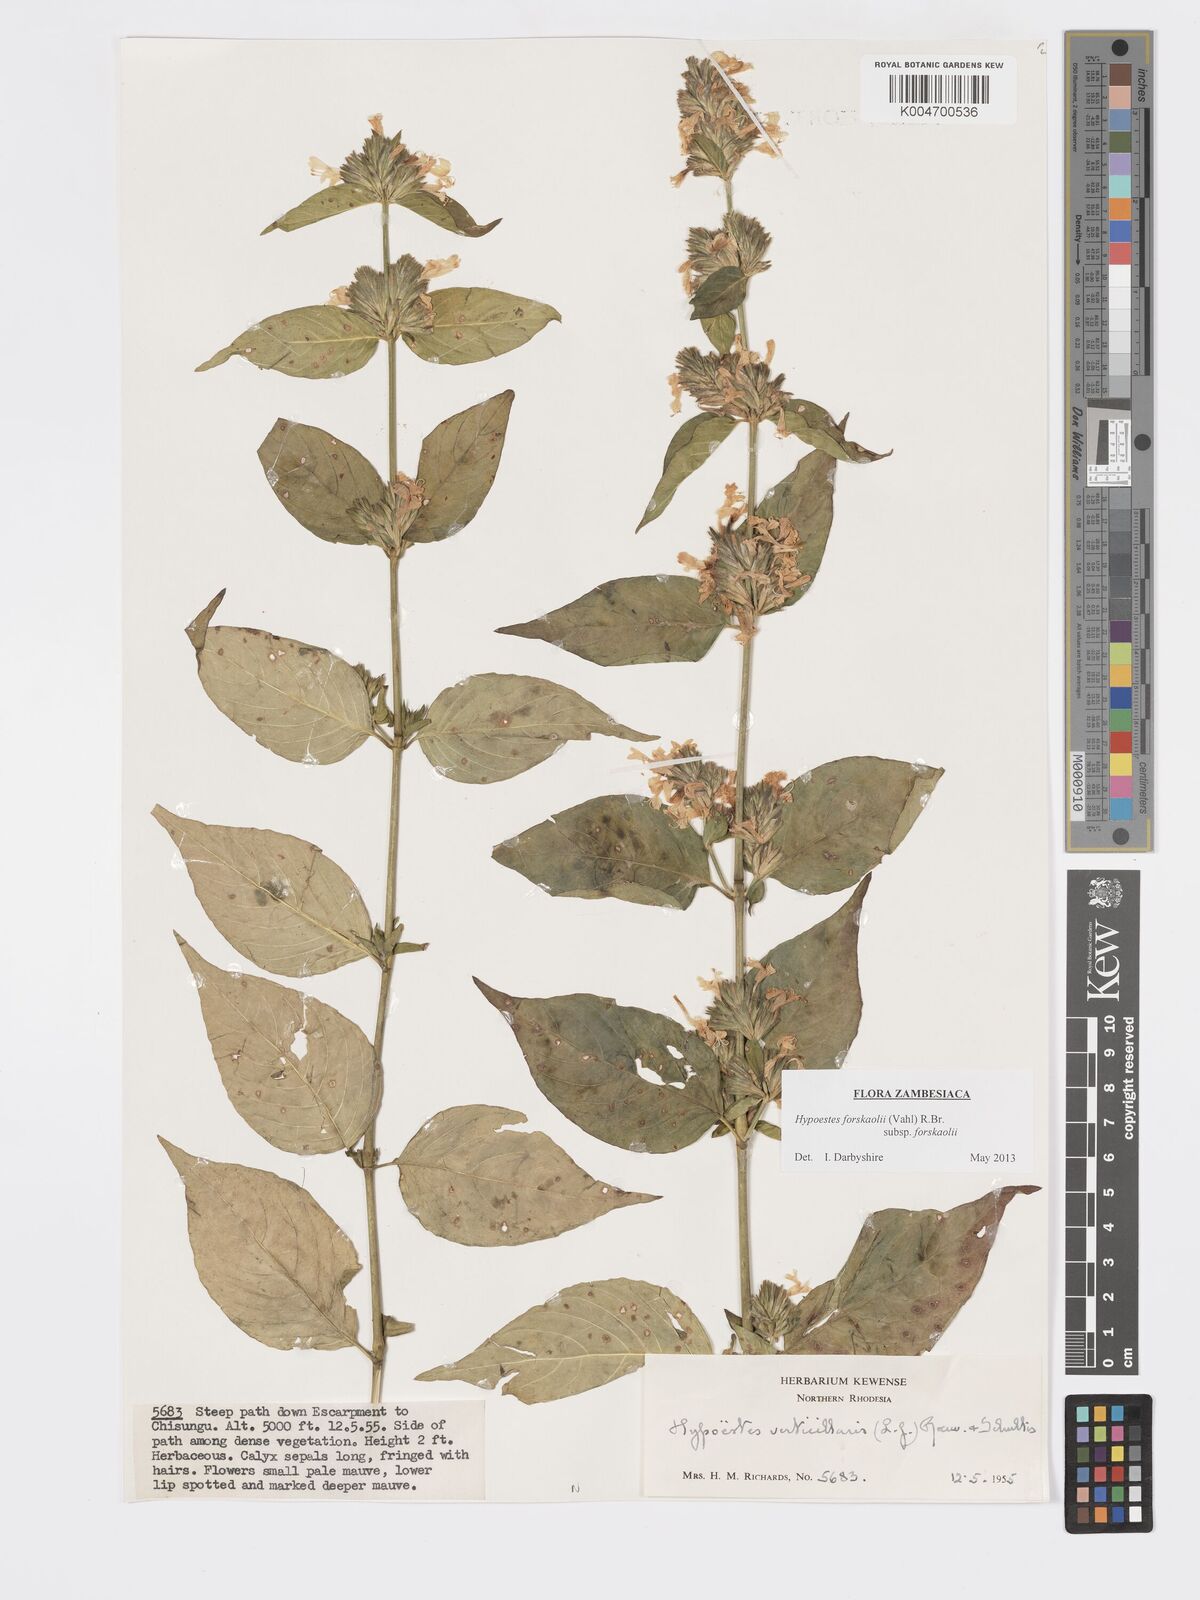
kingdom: Plantae
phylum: Tracheophyta
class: Magnoliopsida
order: Lamiales
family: Acanthaceae
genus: Hypoestes
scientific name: Hypoestes forskaolii
